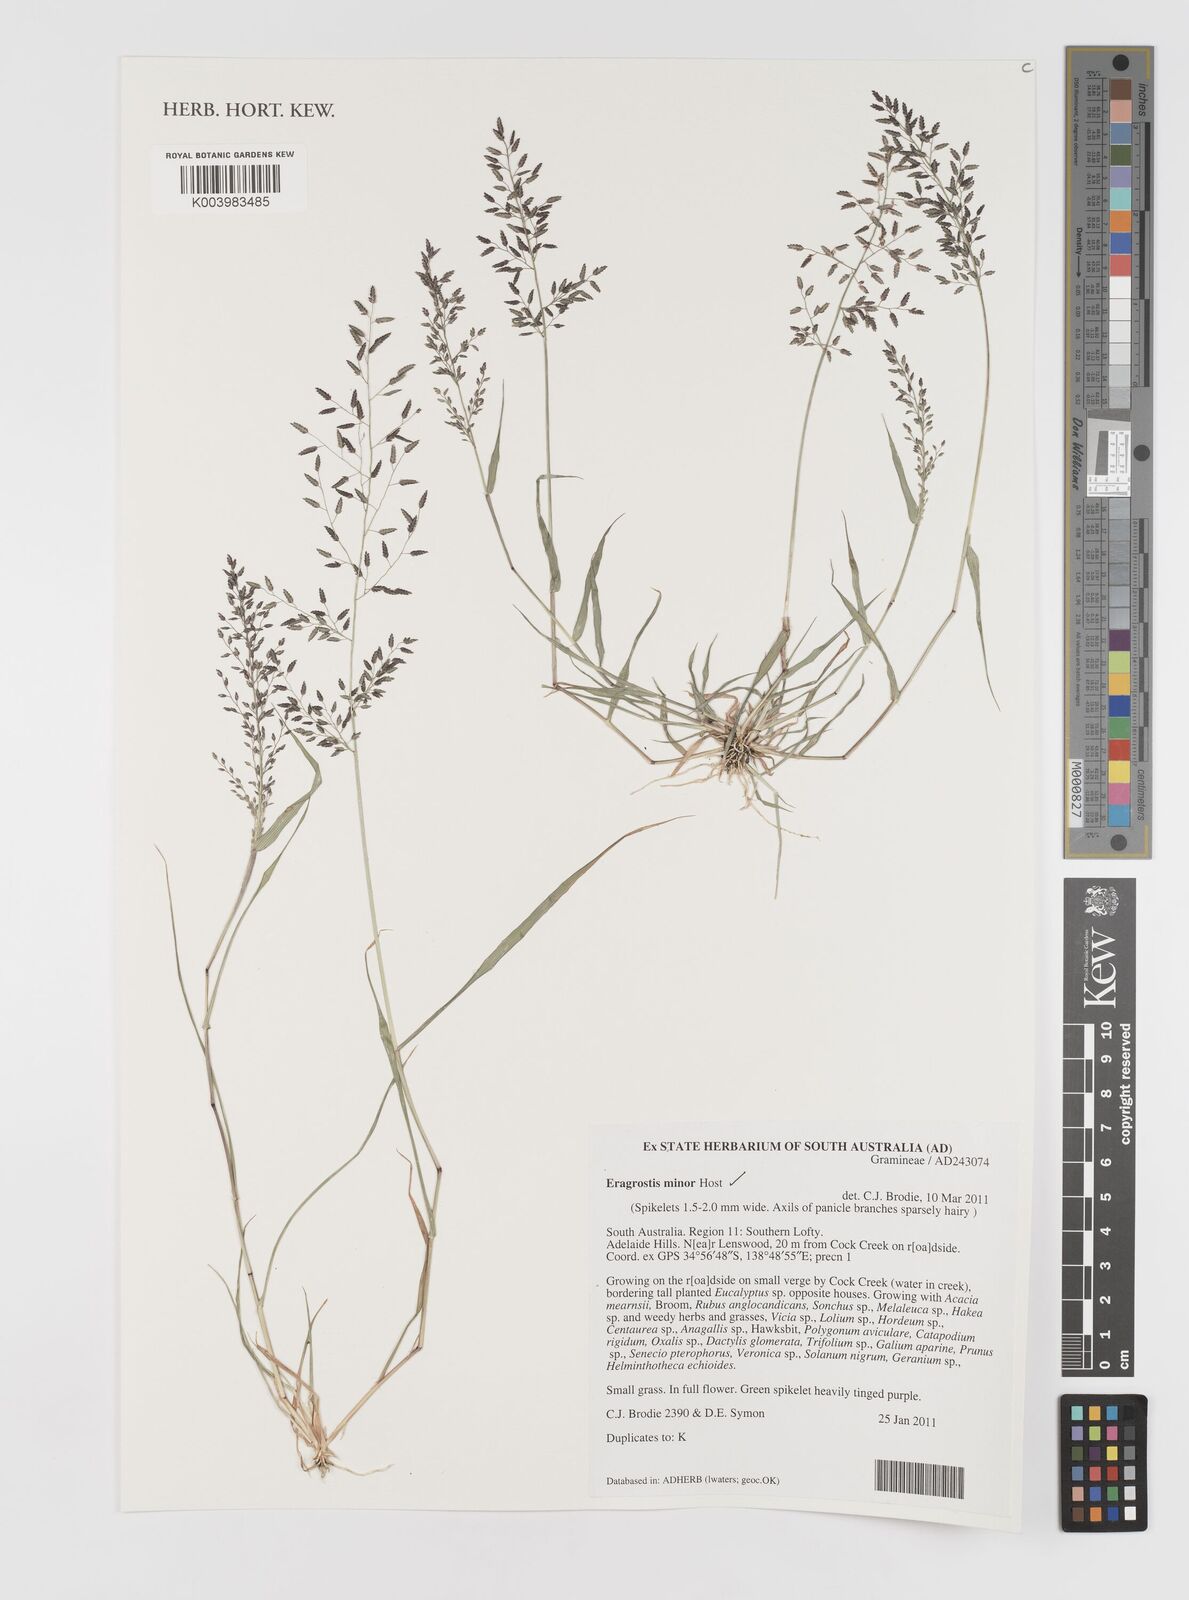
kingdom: Plantae
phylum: Tracheophyta
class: Liliopsida
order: Poales
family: Poaceae
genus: Eragrostis
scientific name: Eragrostis minor
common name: Small love-grass
